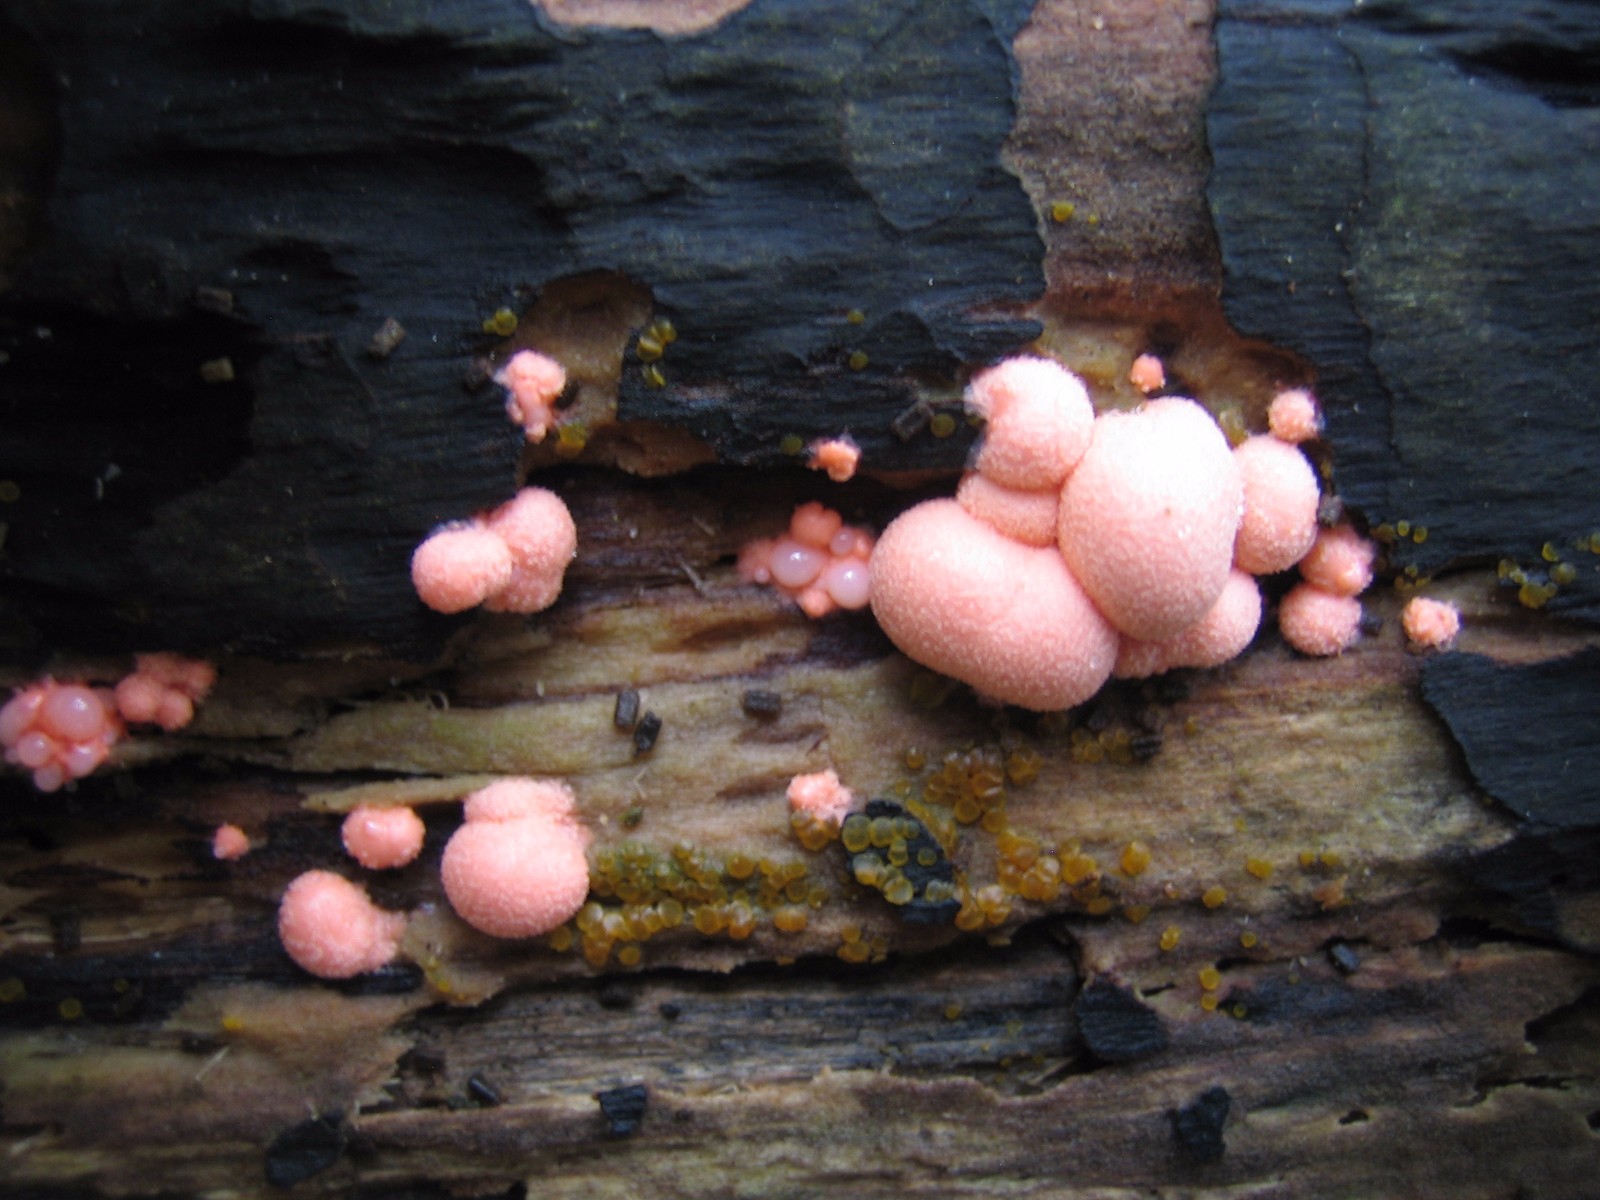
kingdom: Protozoa
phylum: Mycetozoa
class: Myxomycetes
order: Cribrariales
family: Tubiferaceae
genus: Lycogala
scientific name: Lycogala epidendrum
